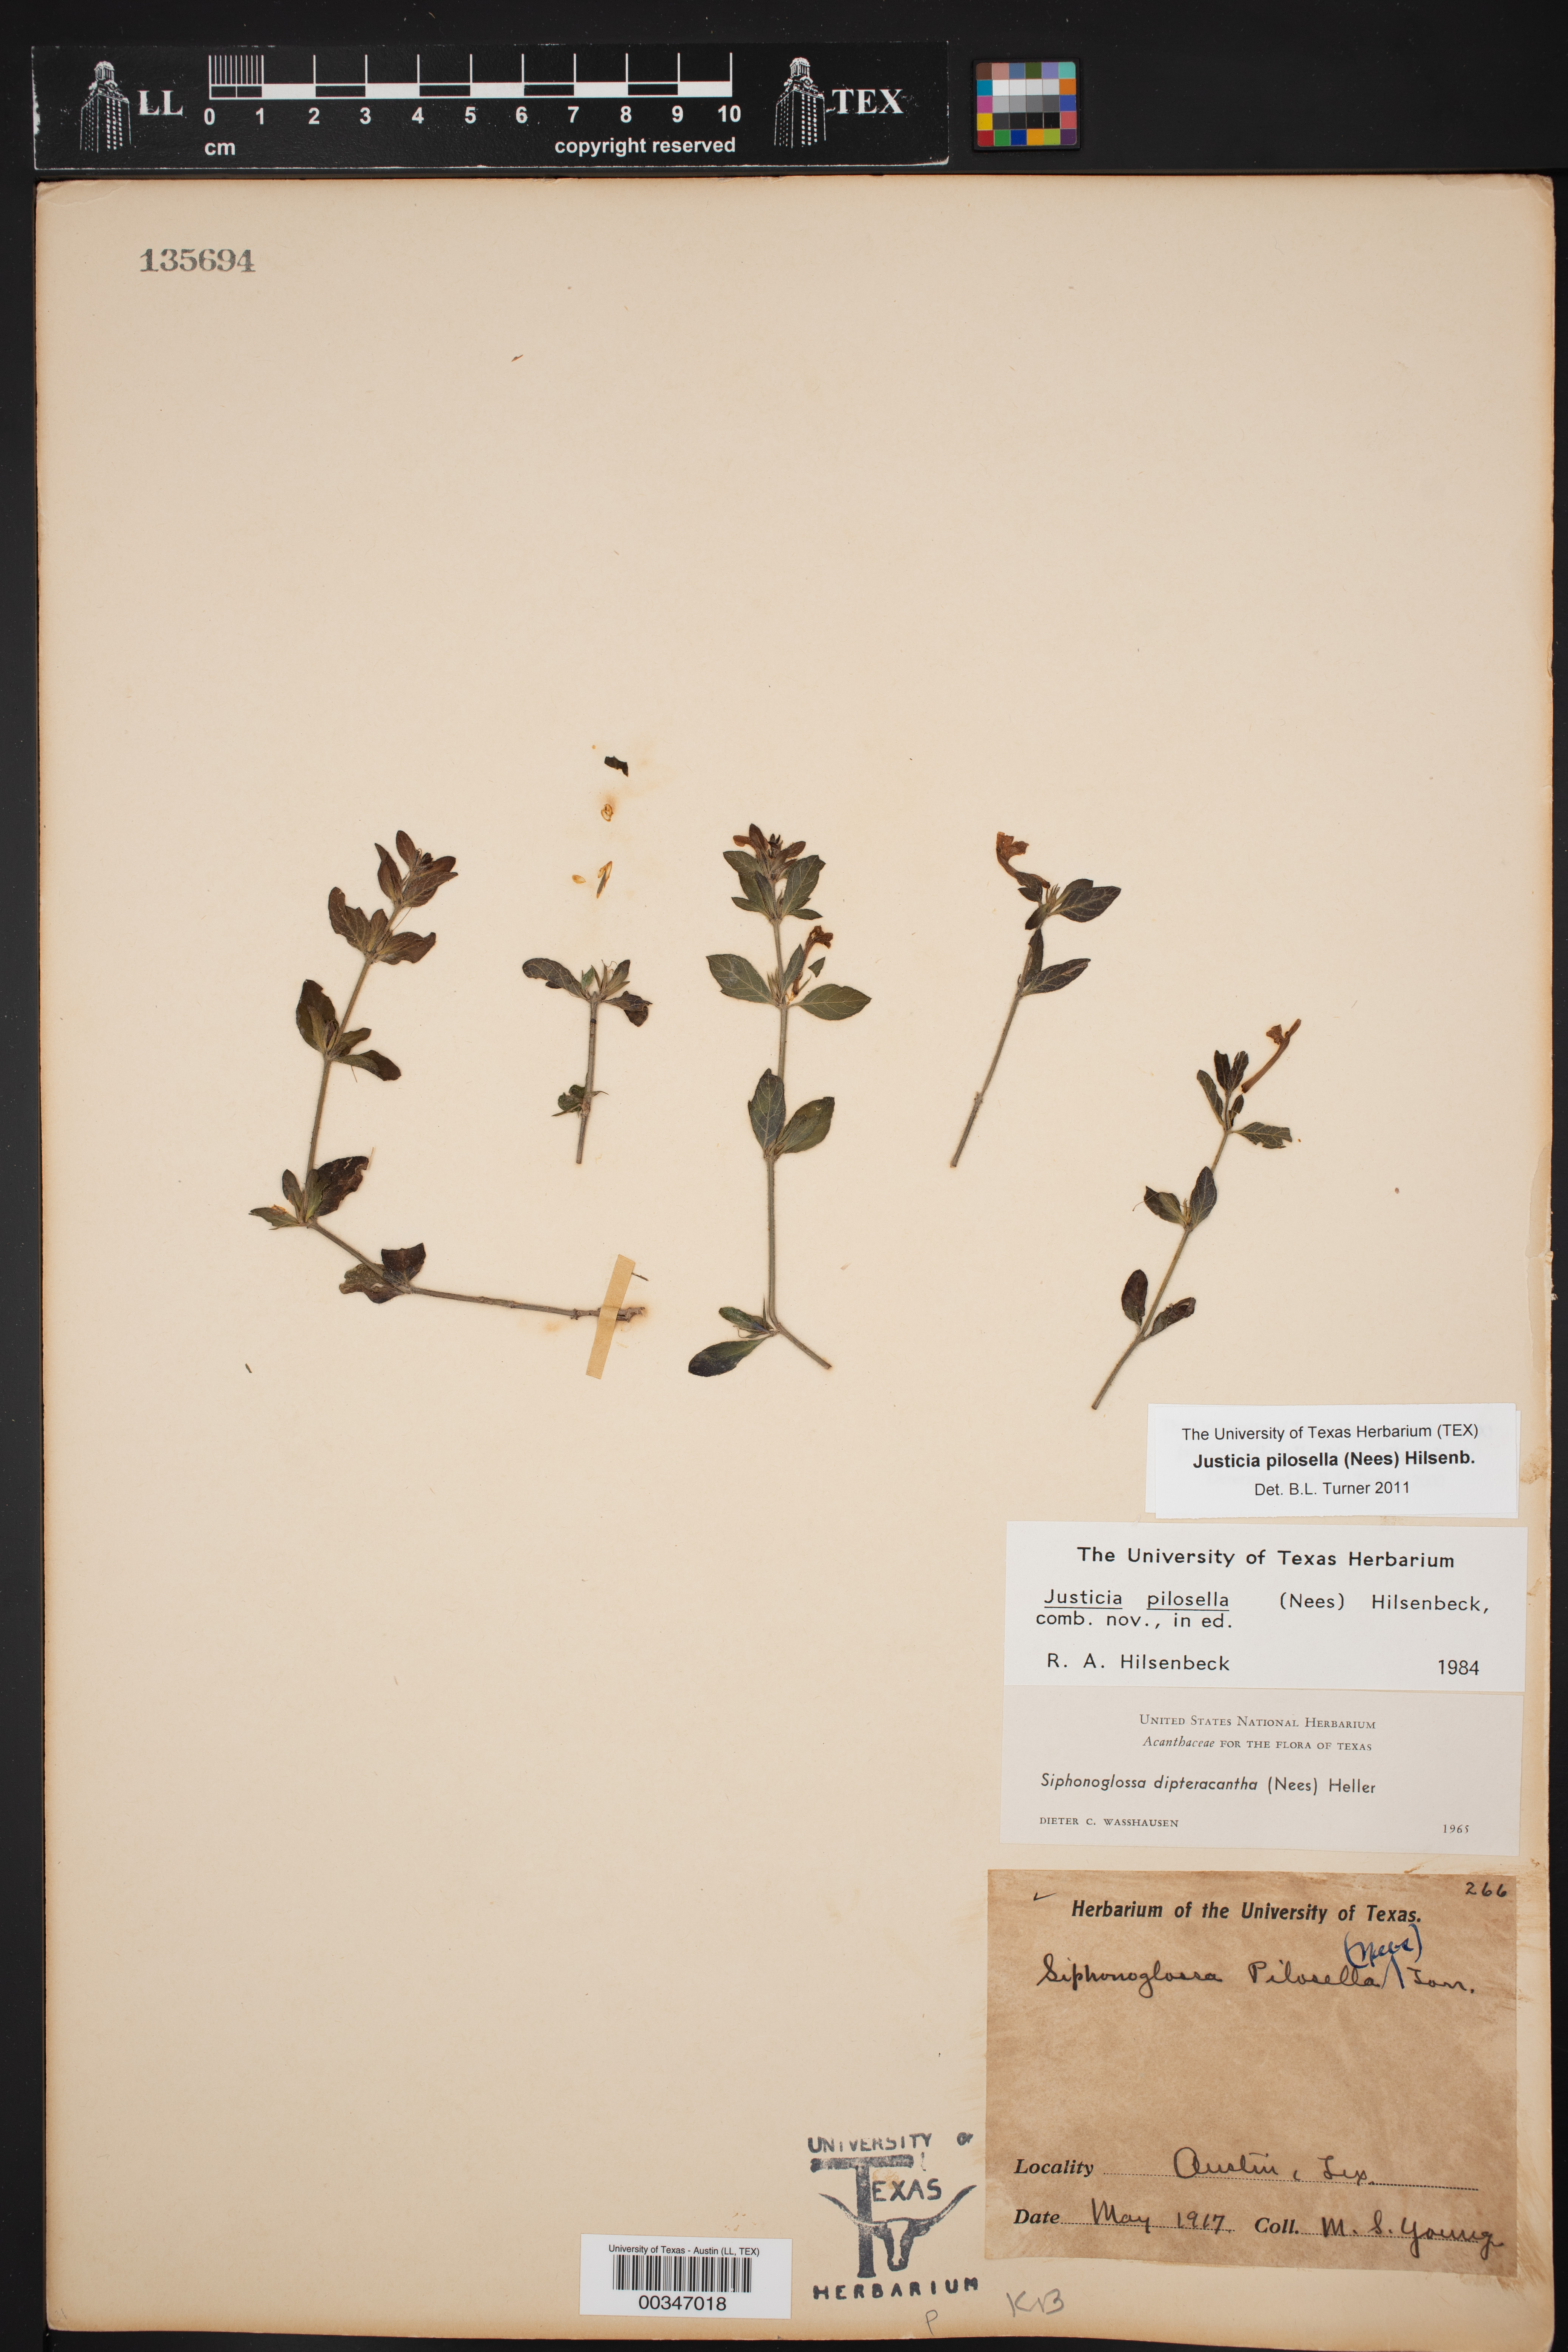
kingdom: Plantae
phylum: Tracheophyta
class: Magnoliopsida
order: Lamiales
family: Acanthaceae
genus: Justicia
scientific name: Justicia pilosella
